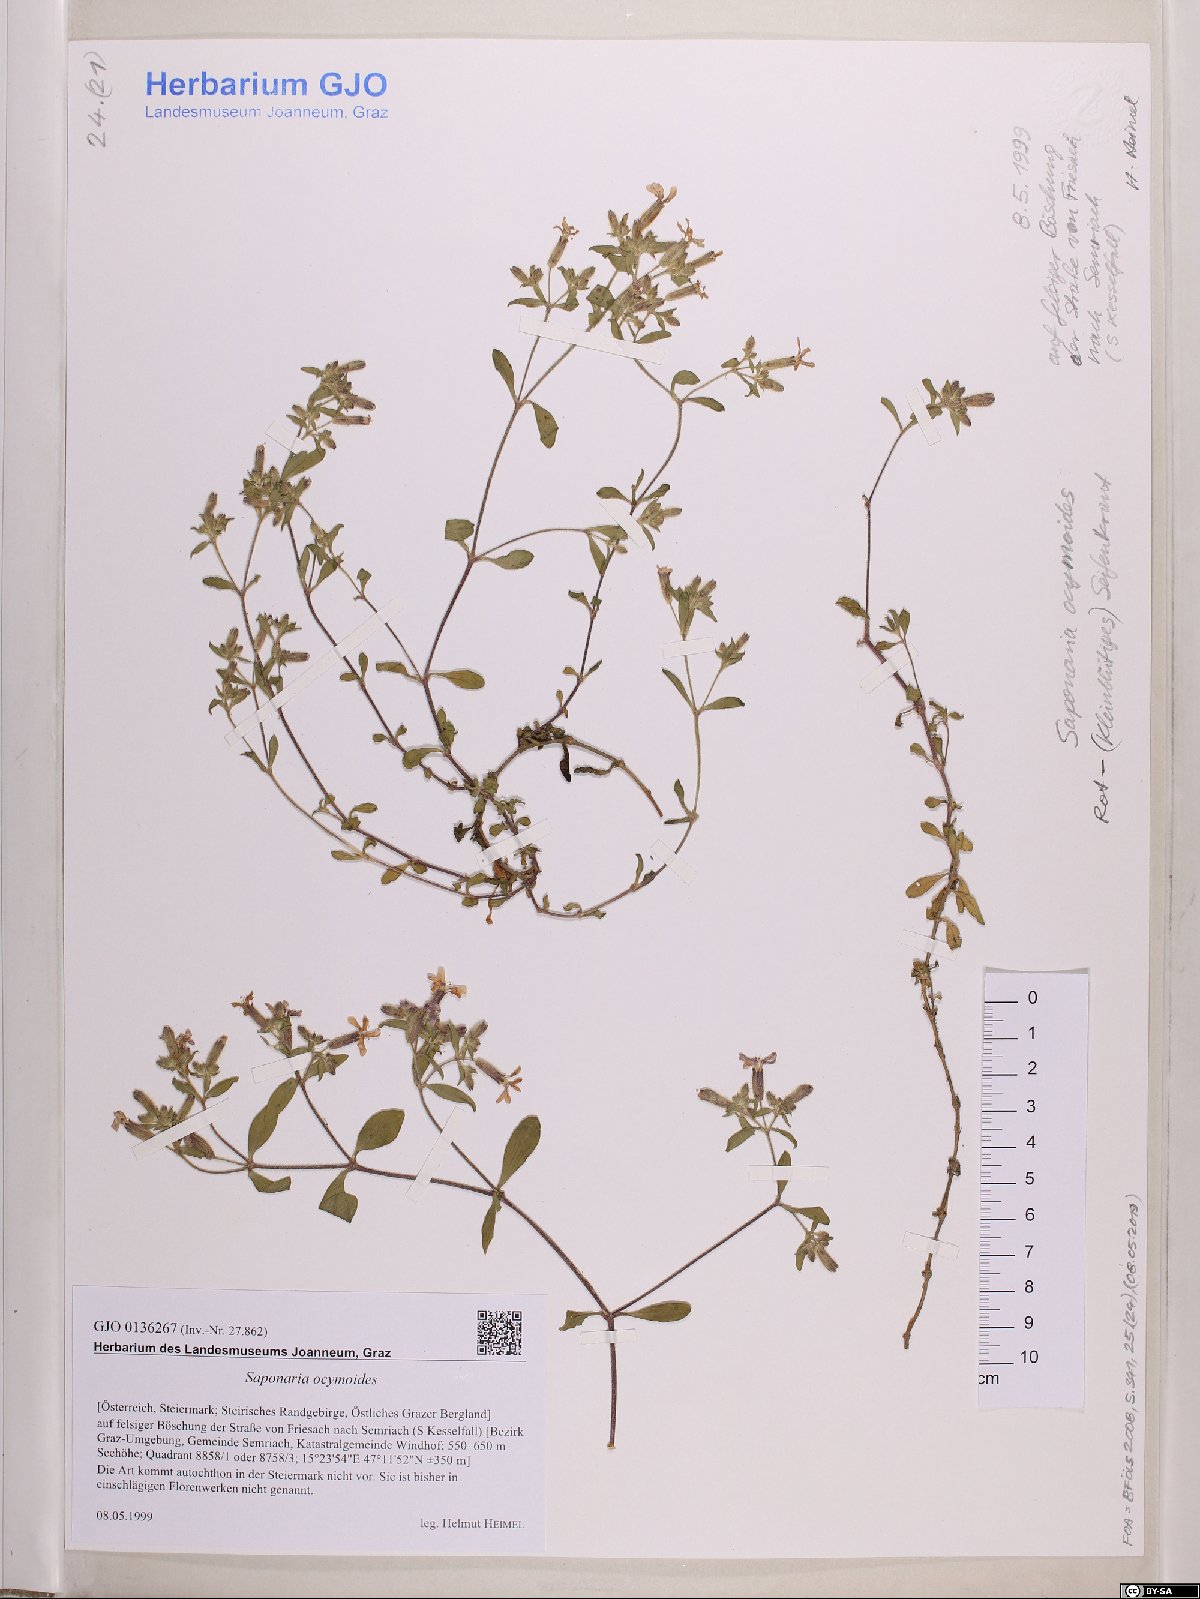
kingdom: Plantae
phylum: Tracheophyta
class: Magnoliopsida
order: Caryophyllales
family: Caryophyllaceae
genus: Saponaria
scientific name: Saponaria ocymoides
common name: Rock soapwort
